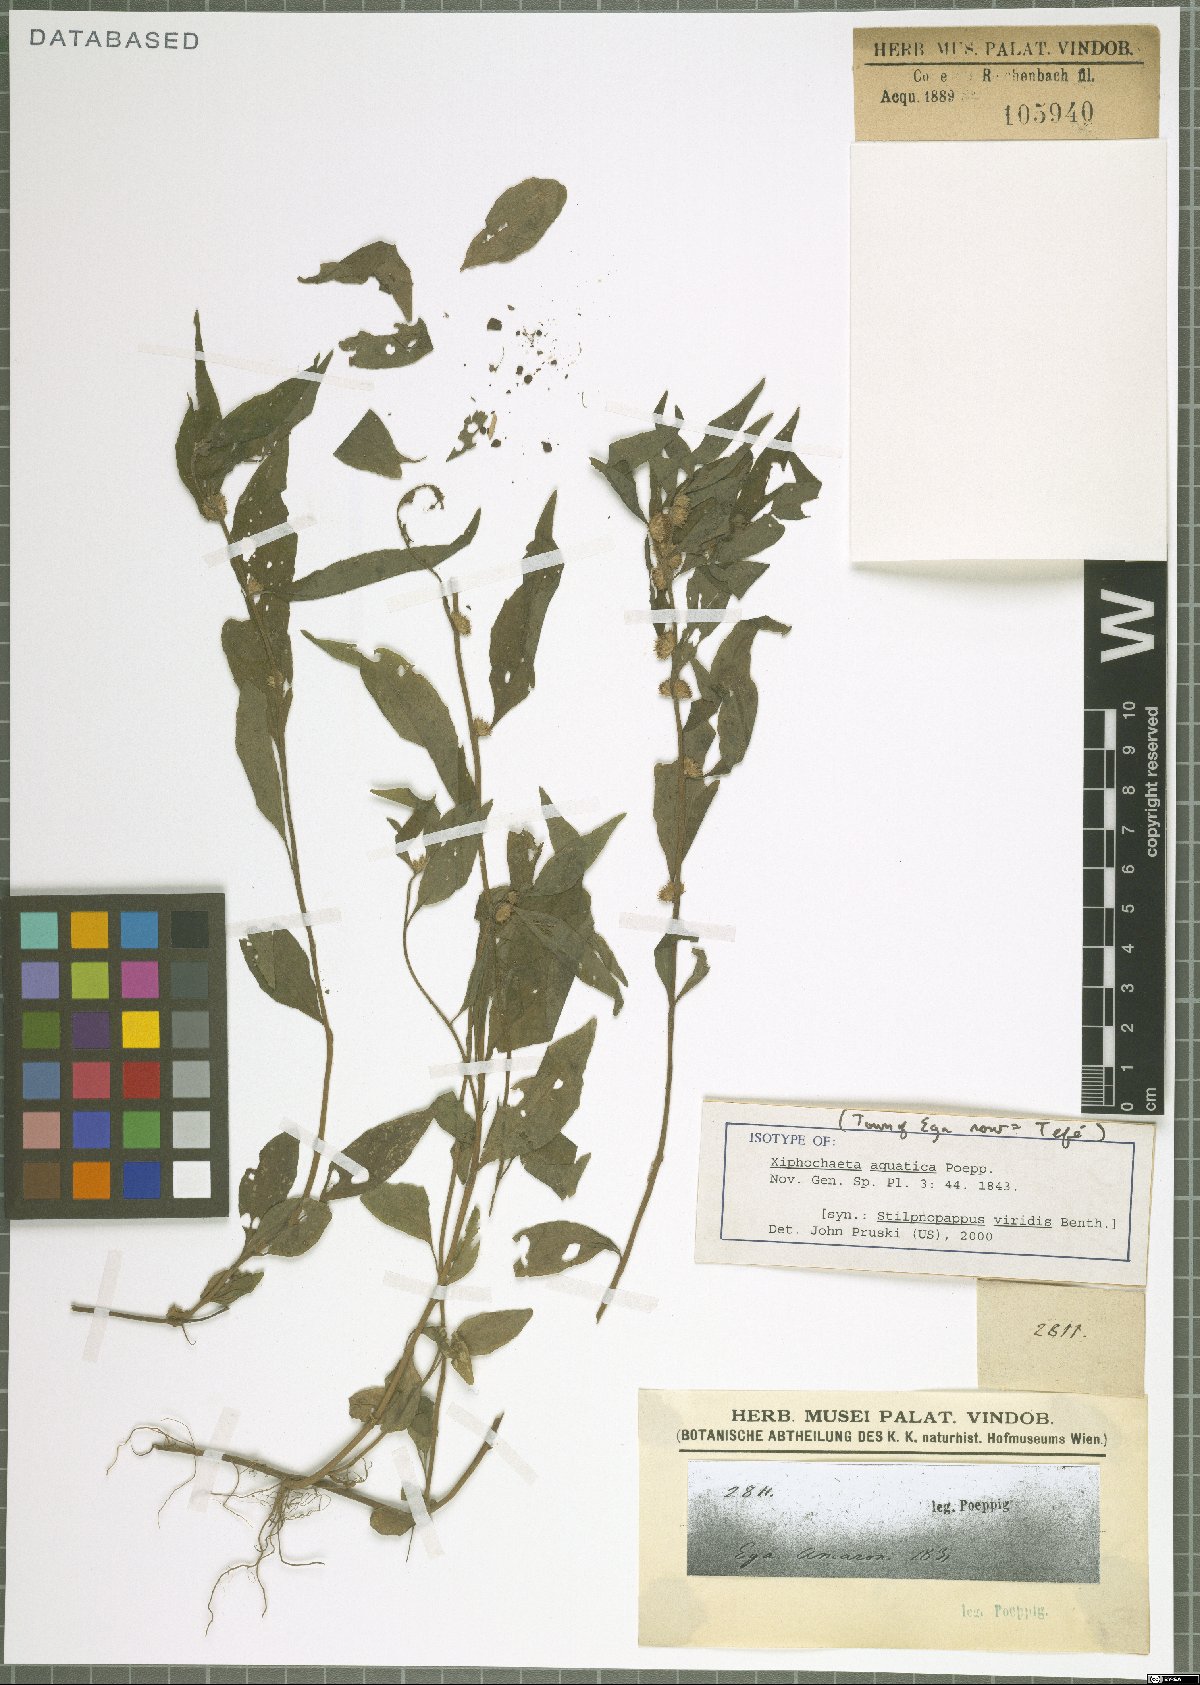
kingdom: Plantae
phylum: Tracheophyta
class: Magnoliopsida
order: Asterales
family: Asteraceae
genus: Xiphochaeta
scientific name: Xiphochaeta aquatica
